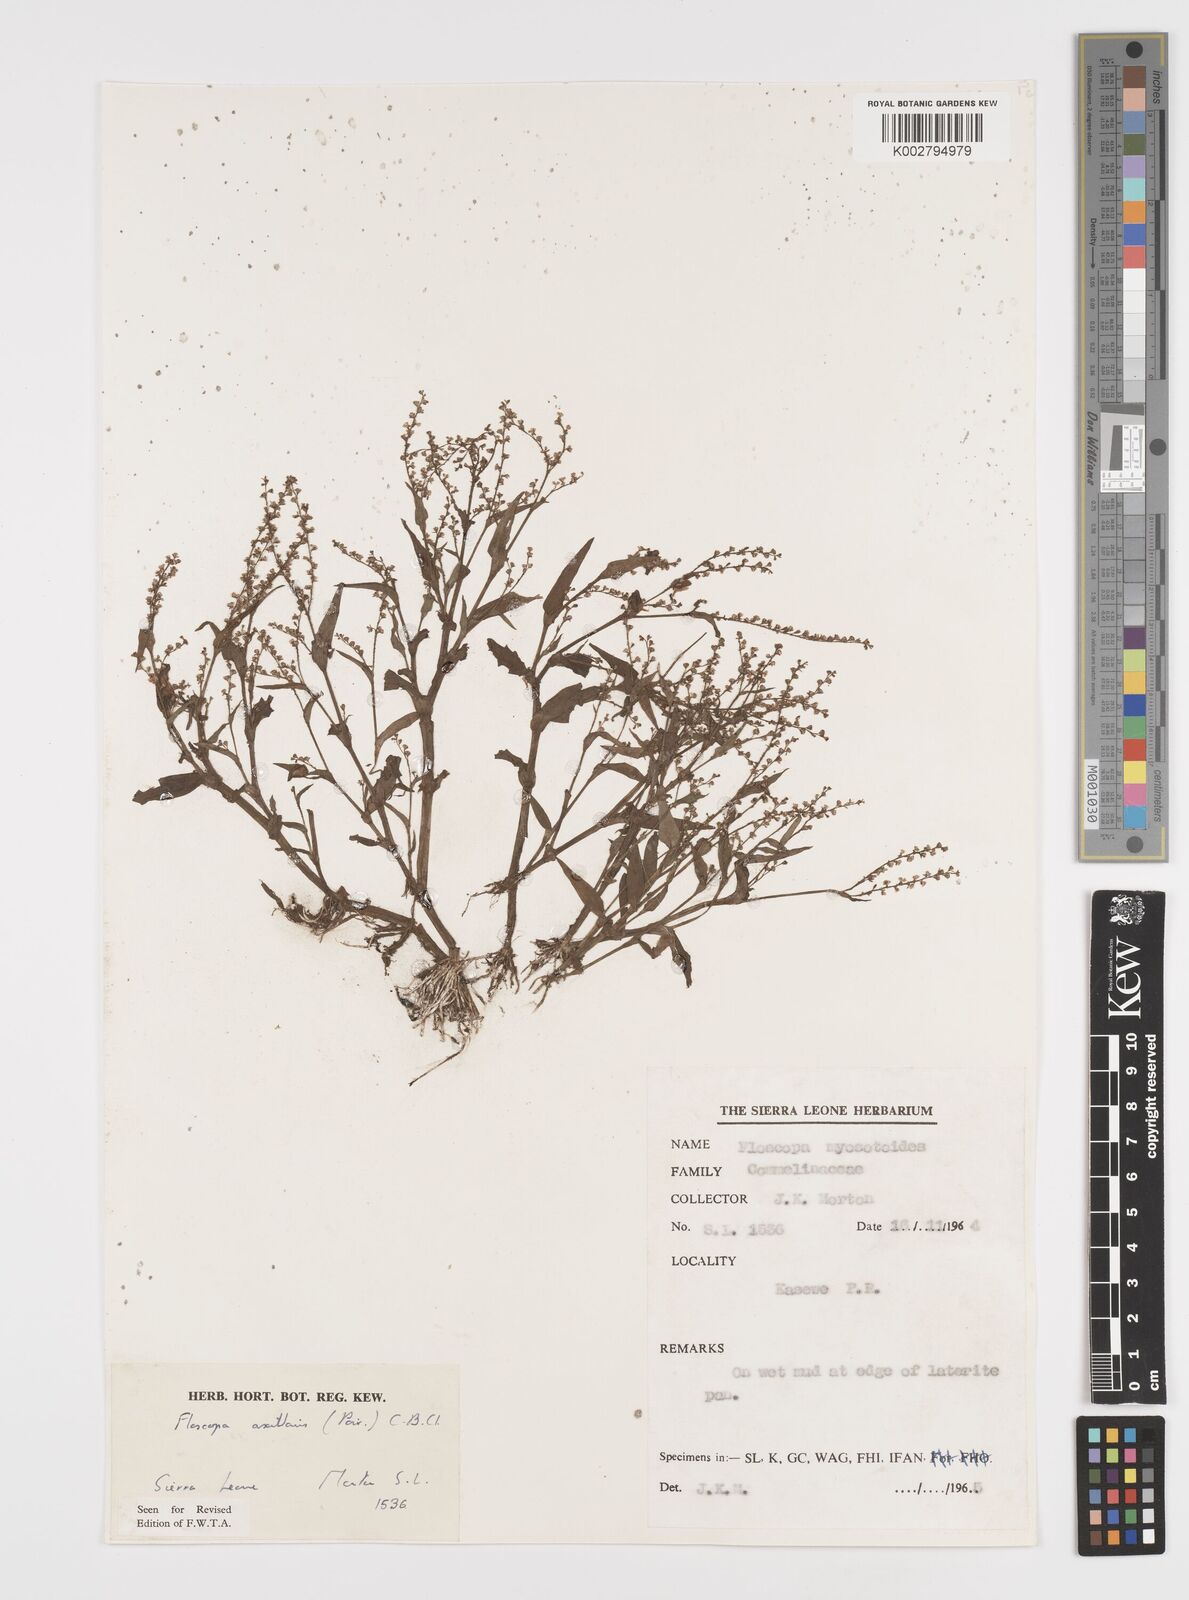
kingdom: Plantae
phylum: Tracheophyta
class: Liliopsida
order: Commelinales
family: Commelinaceae
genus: Floscopa
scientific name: Floscopa axillaris
